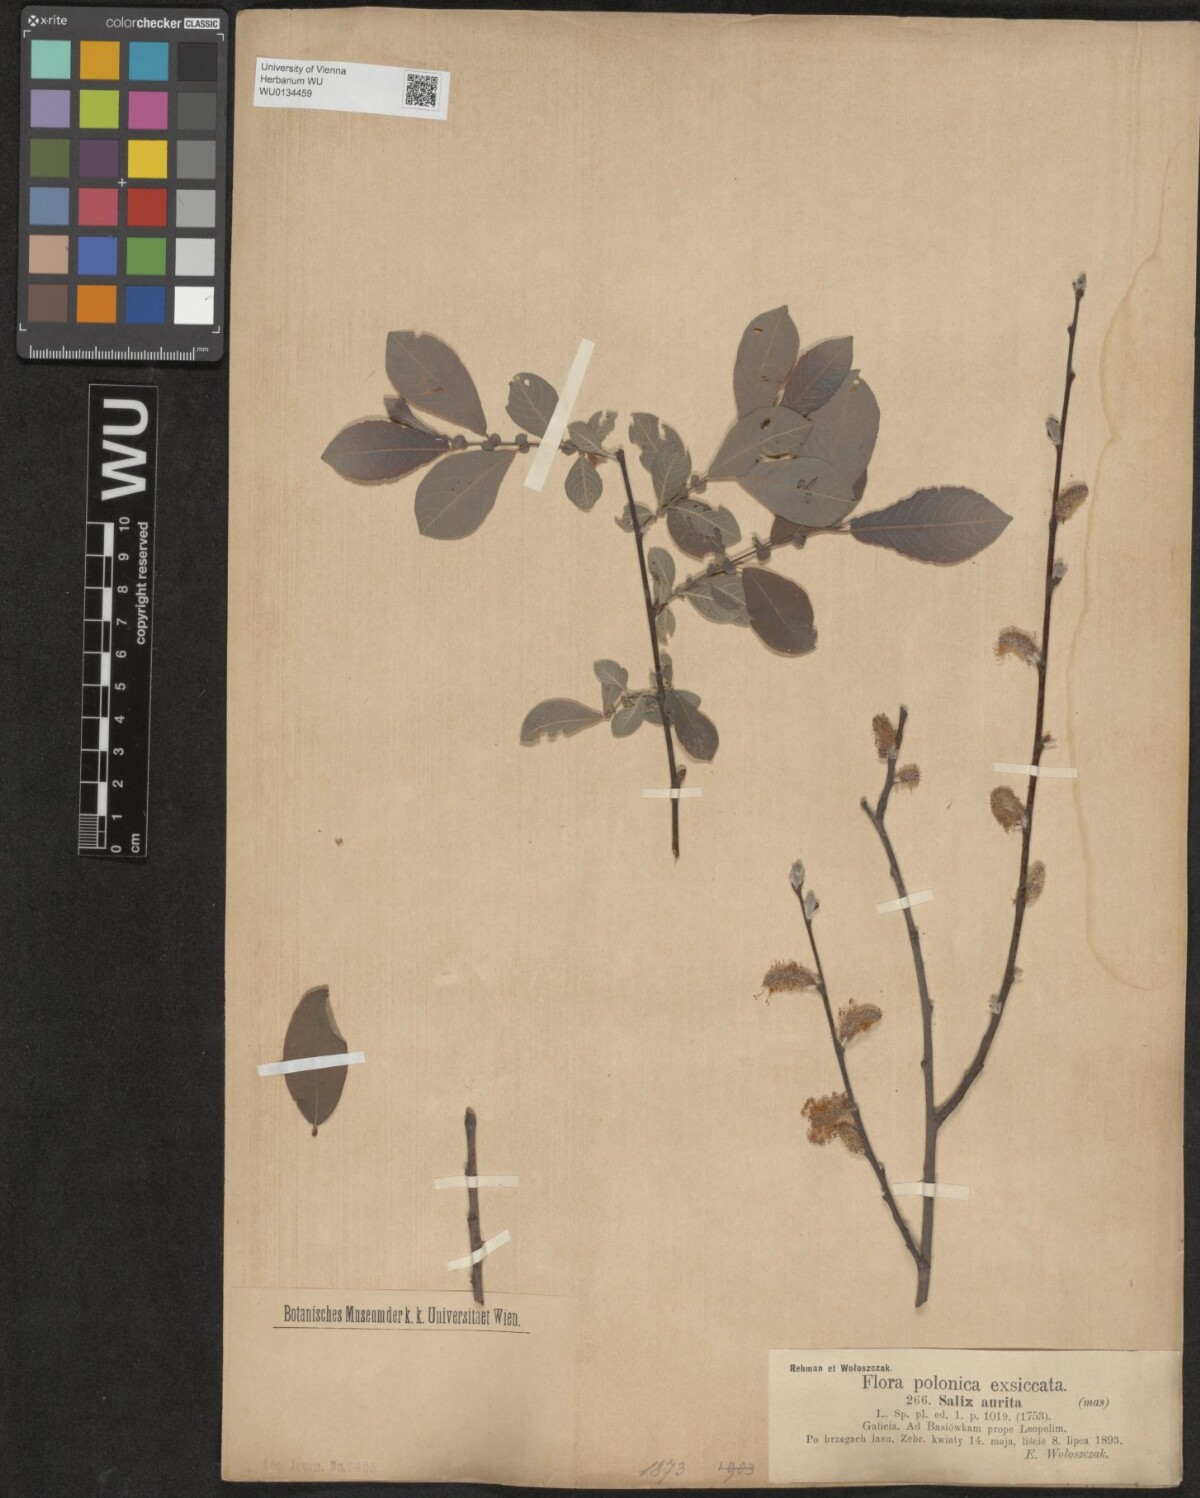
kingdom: Plantae
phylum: Tracheophyta
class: Magnoliopsida
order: Malpighiales
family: Salicaceae
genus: Salix
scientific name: Salix aurita
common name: Eared willow
